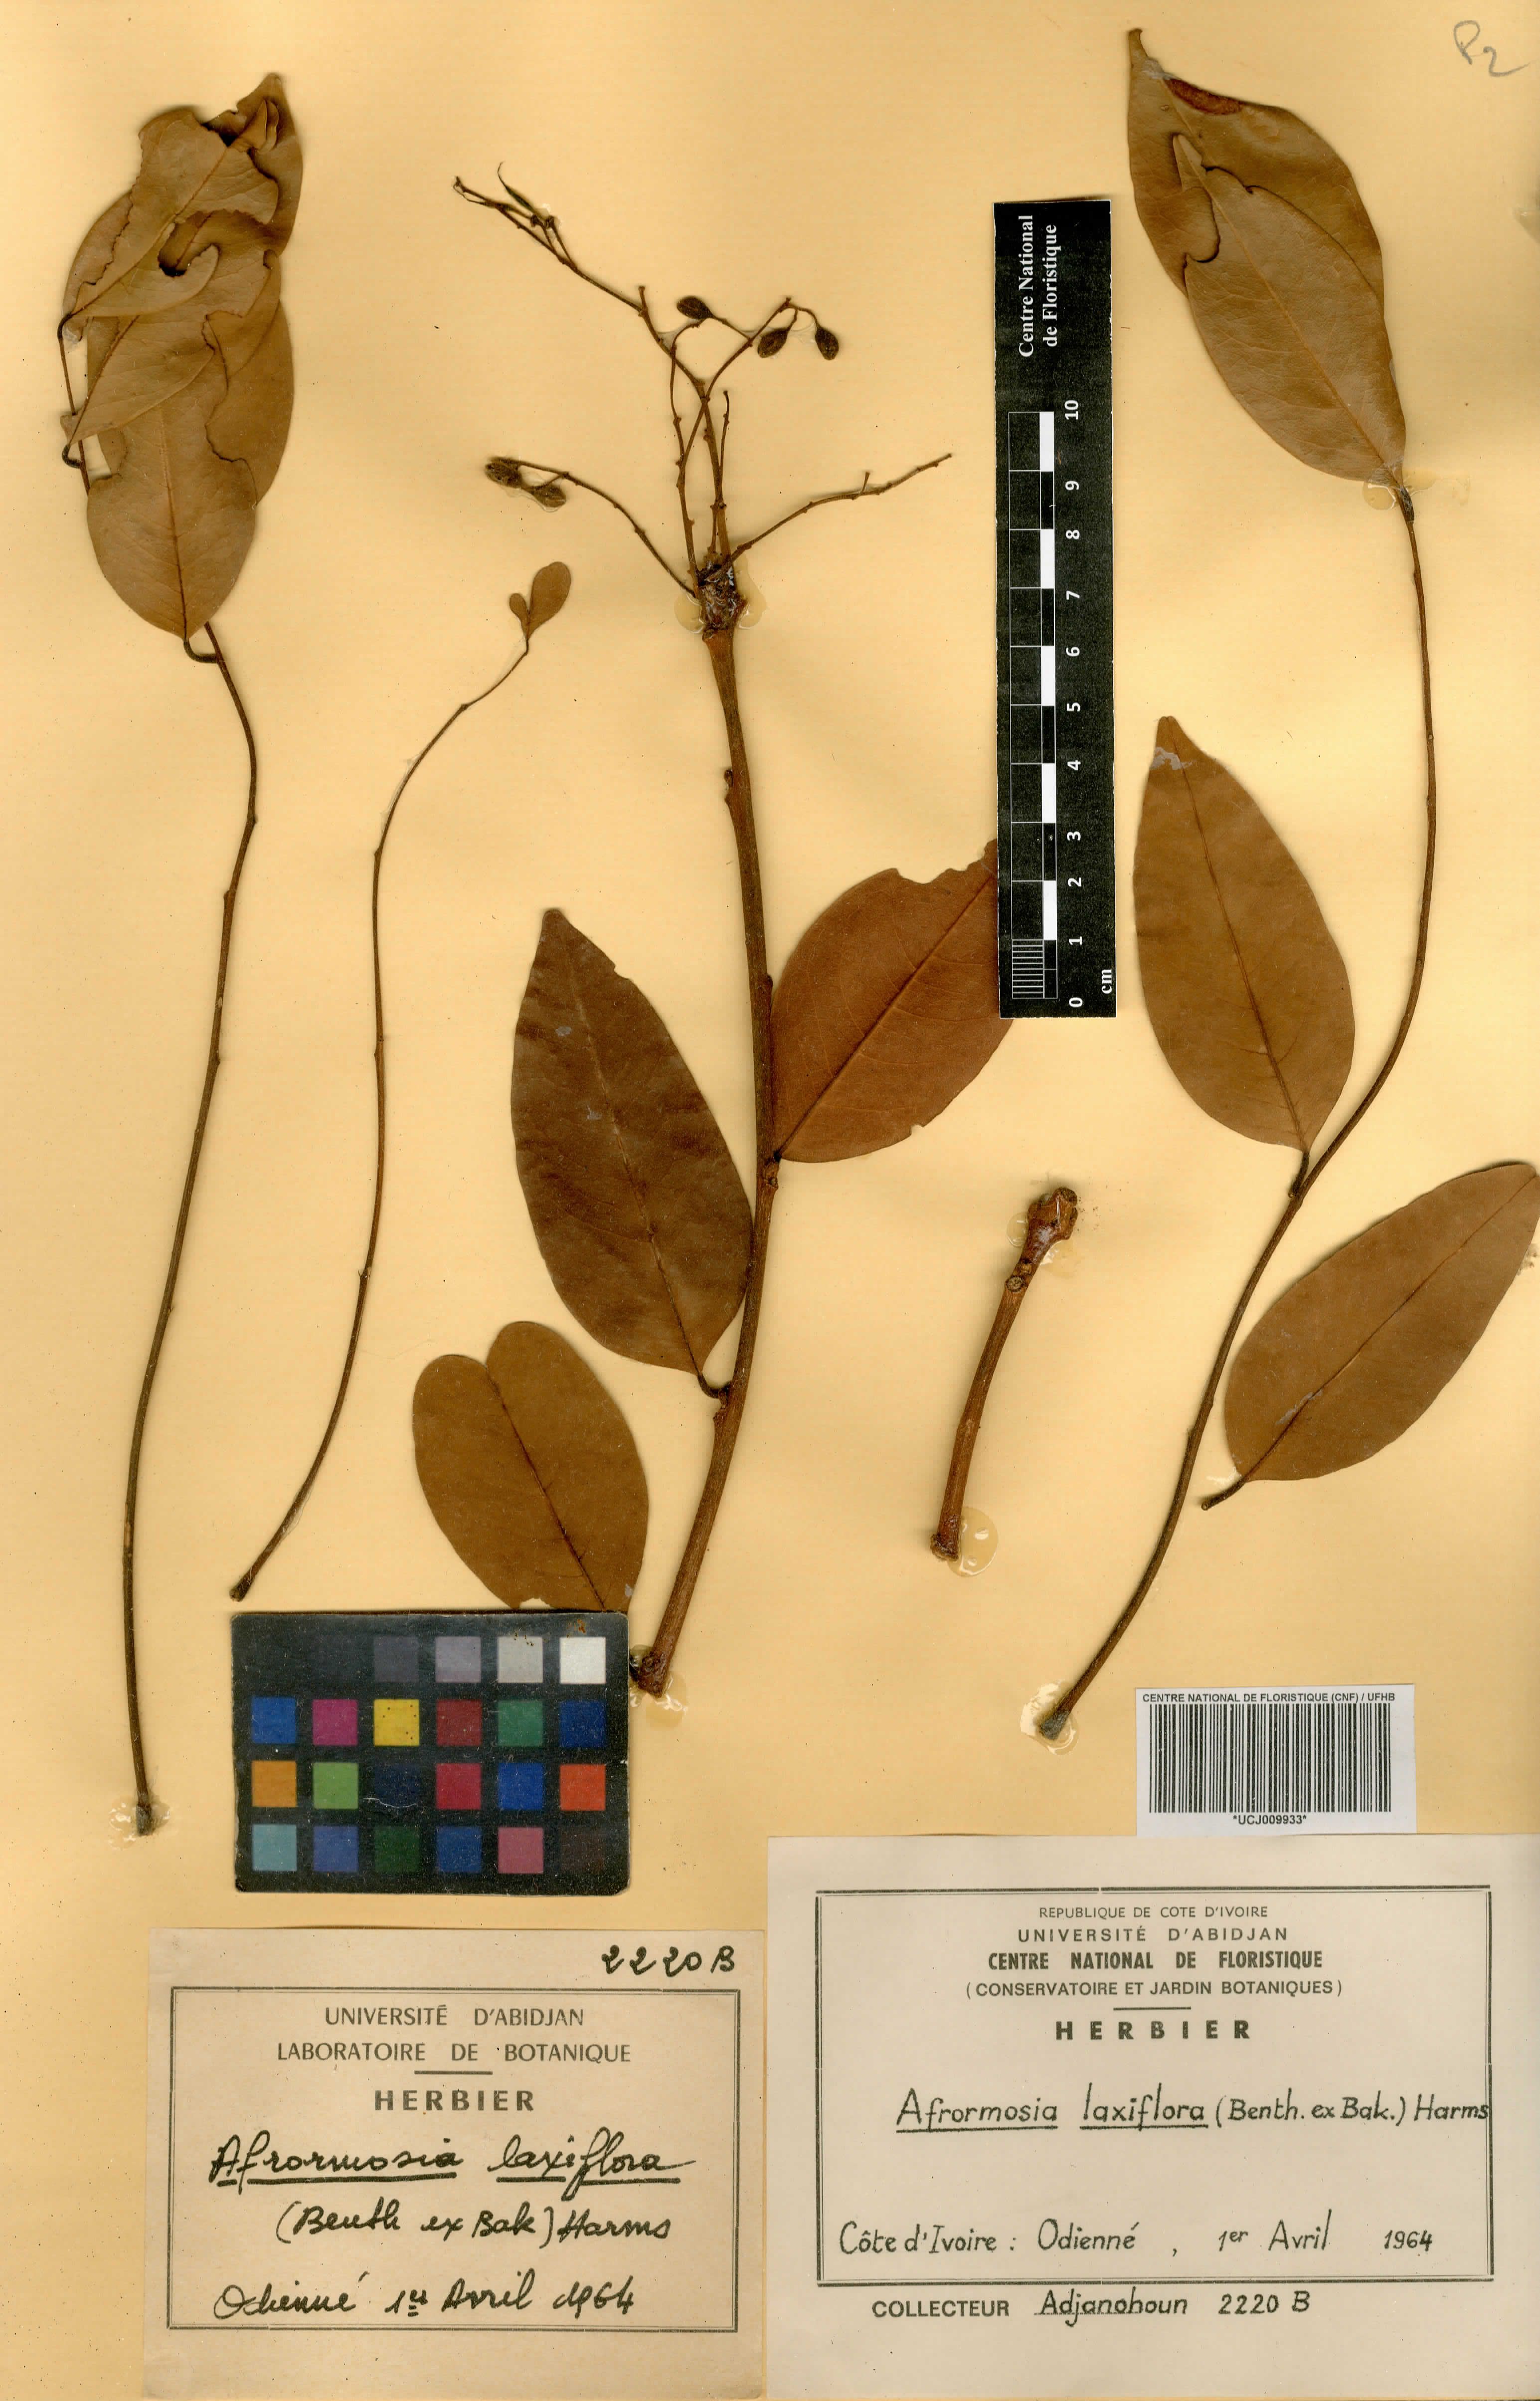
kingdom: Plantae
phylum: Tracheophyta
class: Magnoliopsida
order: Fabales
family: Fabaceae
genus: Pericopsis
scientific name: Pericopsis laxiflora
